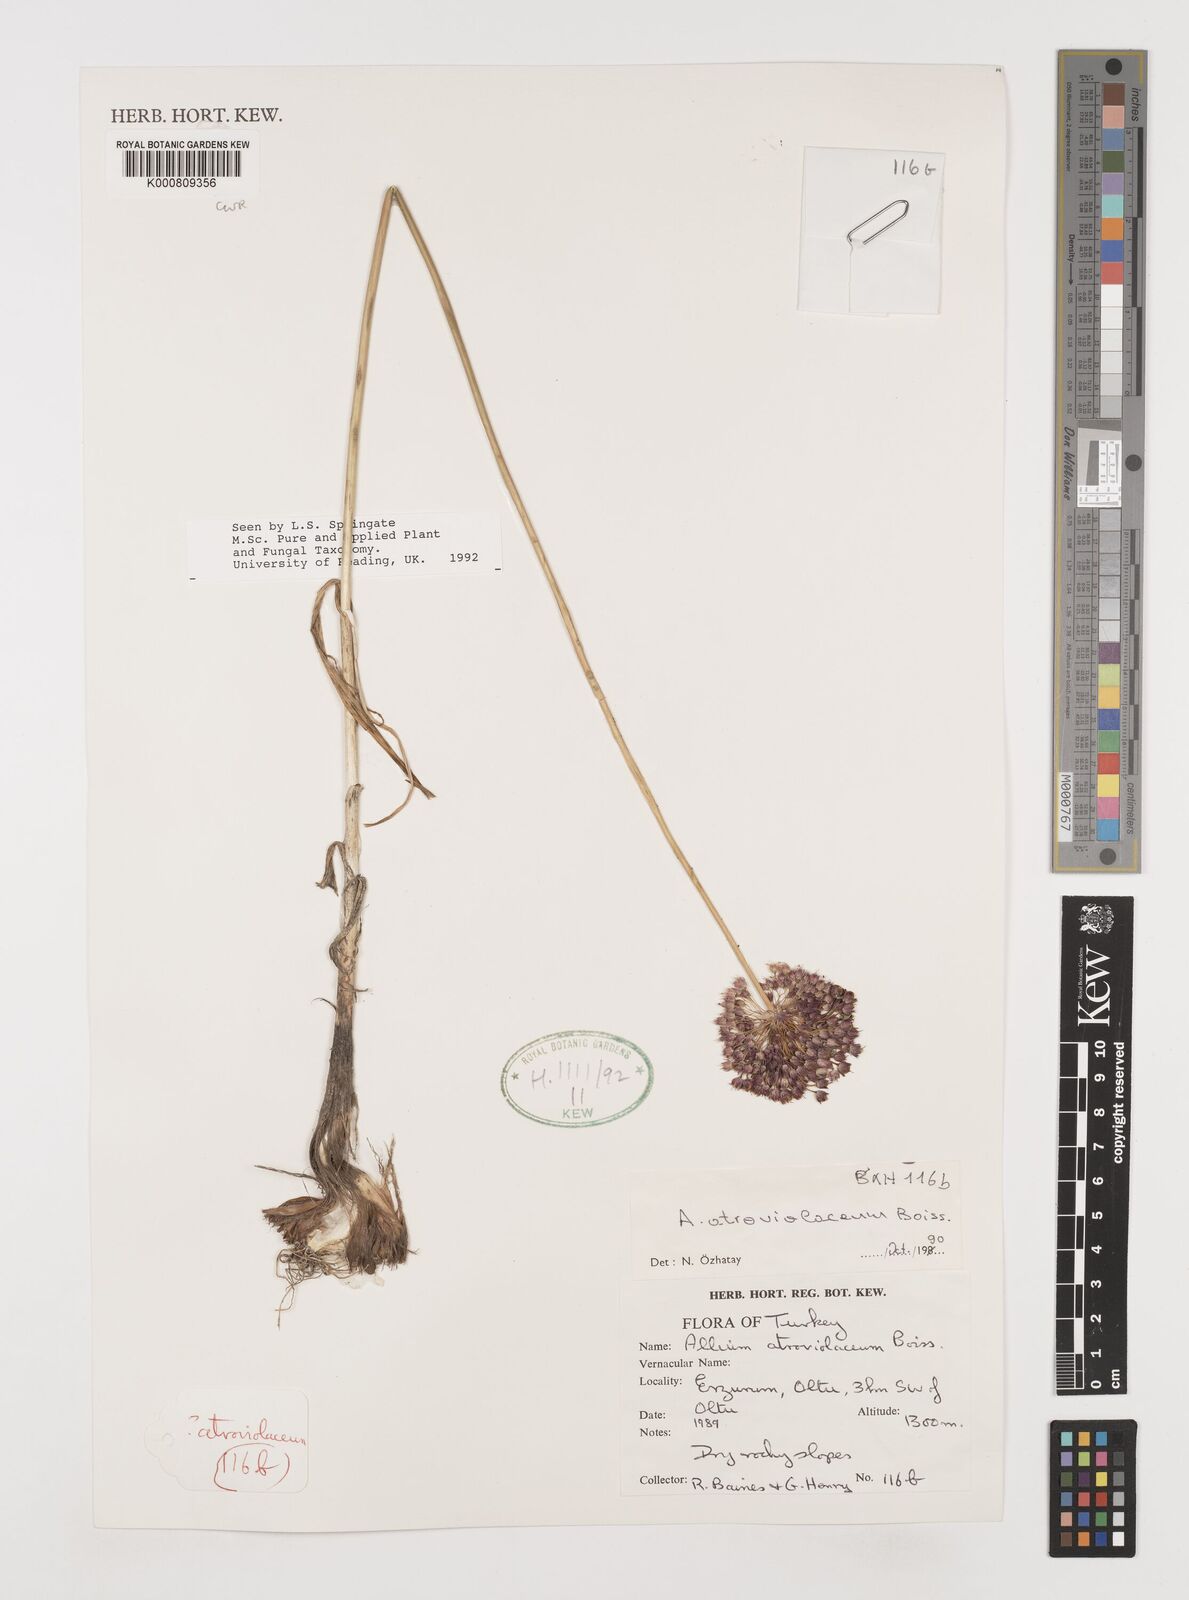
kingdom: Plantae
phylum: Tracheophyta
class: Liliopsida
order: Asparagales
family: Amaryllidaceae
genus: Allium
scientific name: Allium atroviolaceum
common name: Broadleaf wild leek
